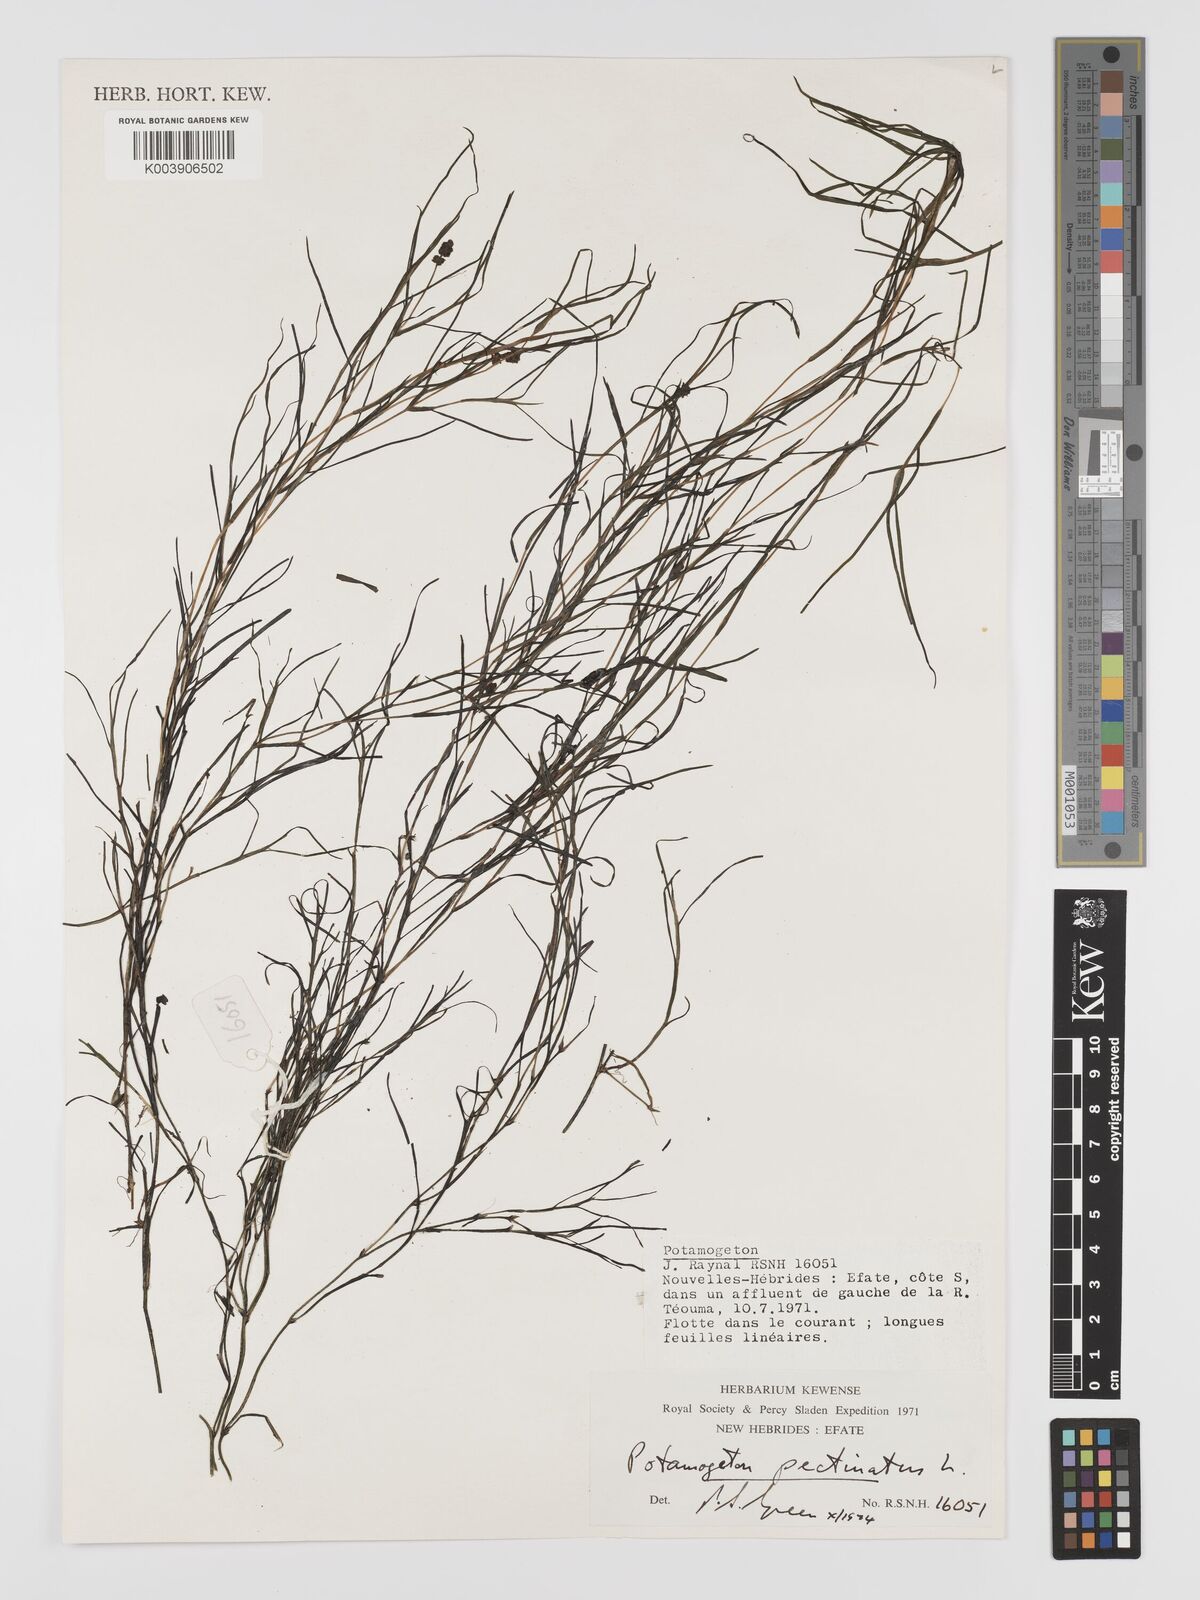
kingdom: Plantae
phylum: Tracheophyta
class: Liliopsida
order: Alismatales
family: Potamogetonaceae
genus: Stuckenia
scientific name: Stuckenia pectinata
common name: Sago pondweed
